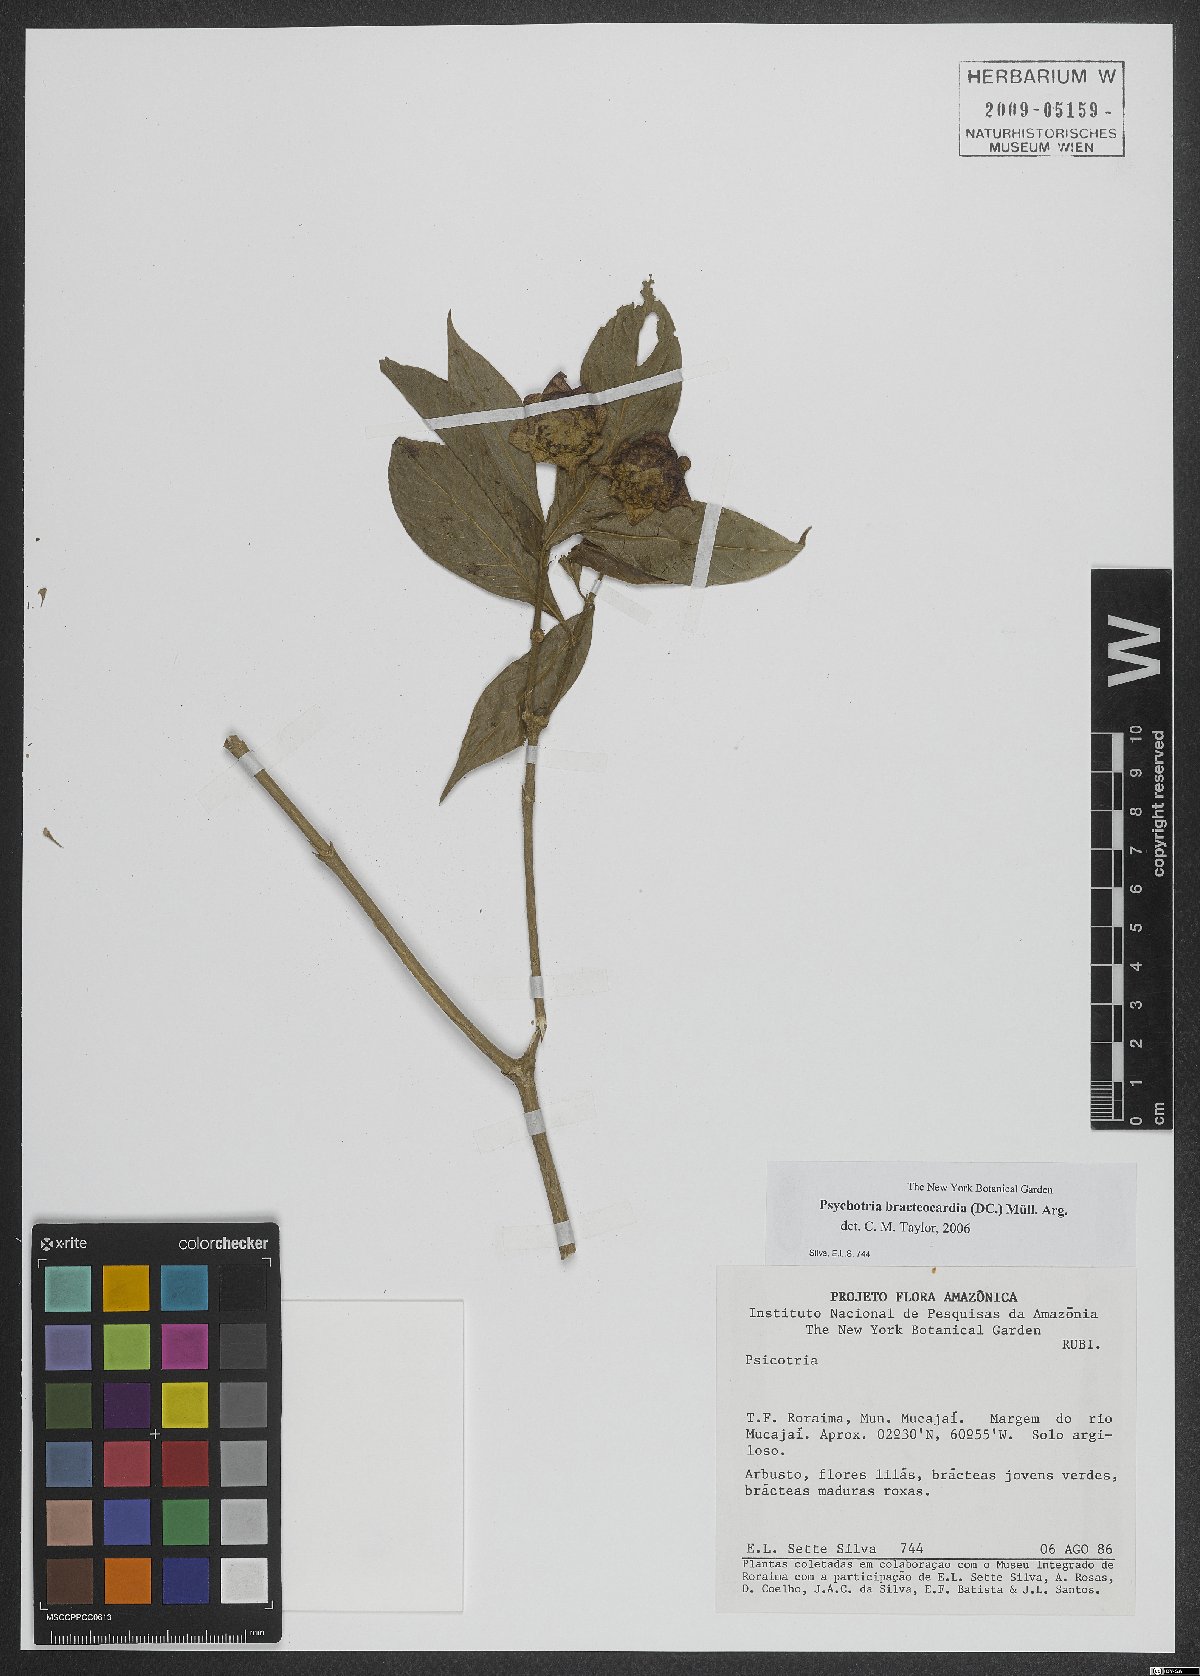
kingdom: Plantae
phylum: Tracheophyta
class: Magnoliopsida
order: Gentianales
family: Rubiaceae
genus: Palicourea
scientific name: Palicourea bracteocardia
